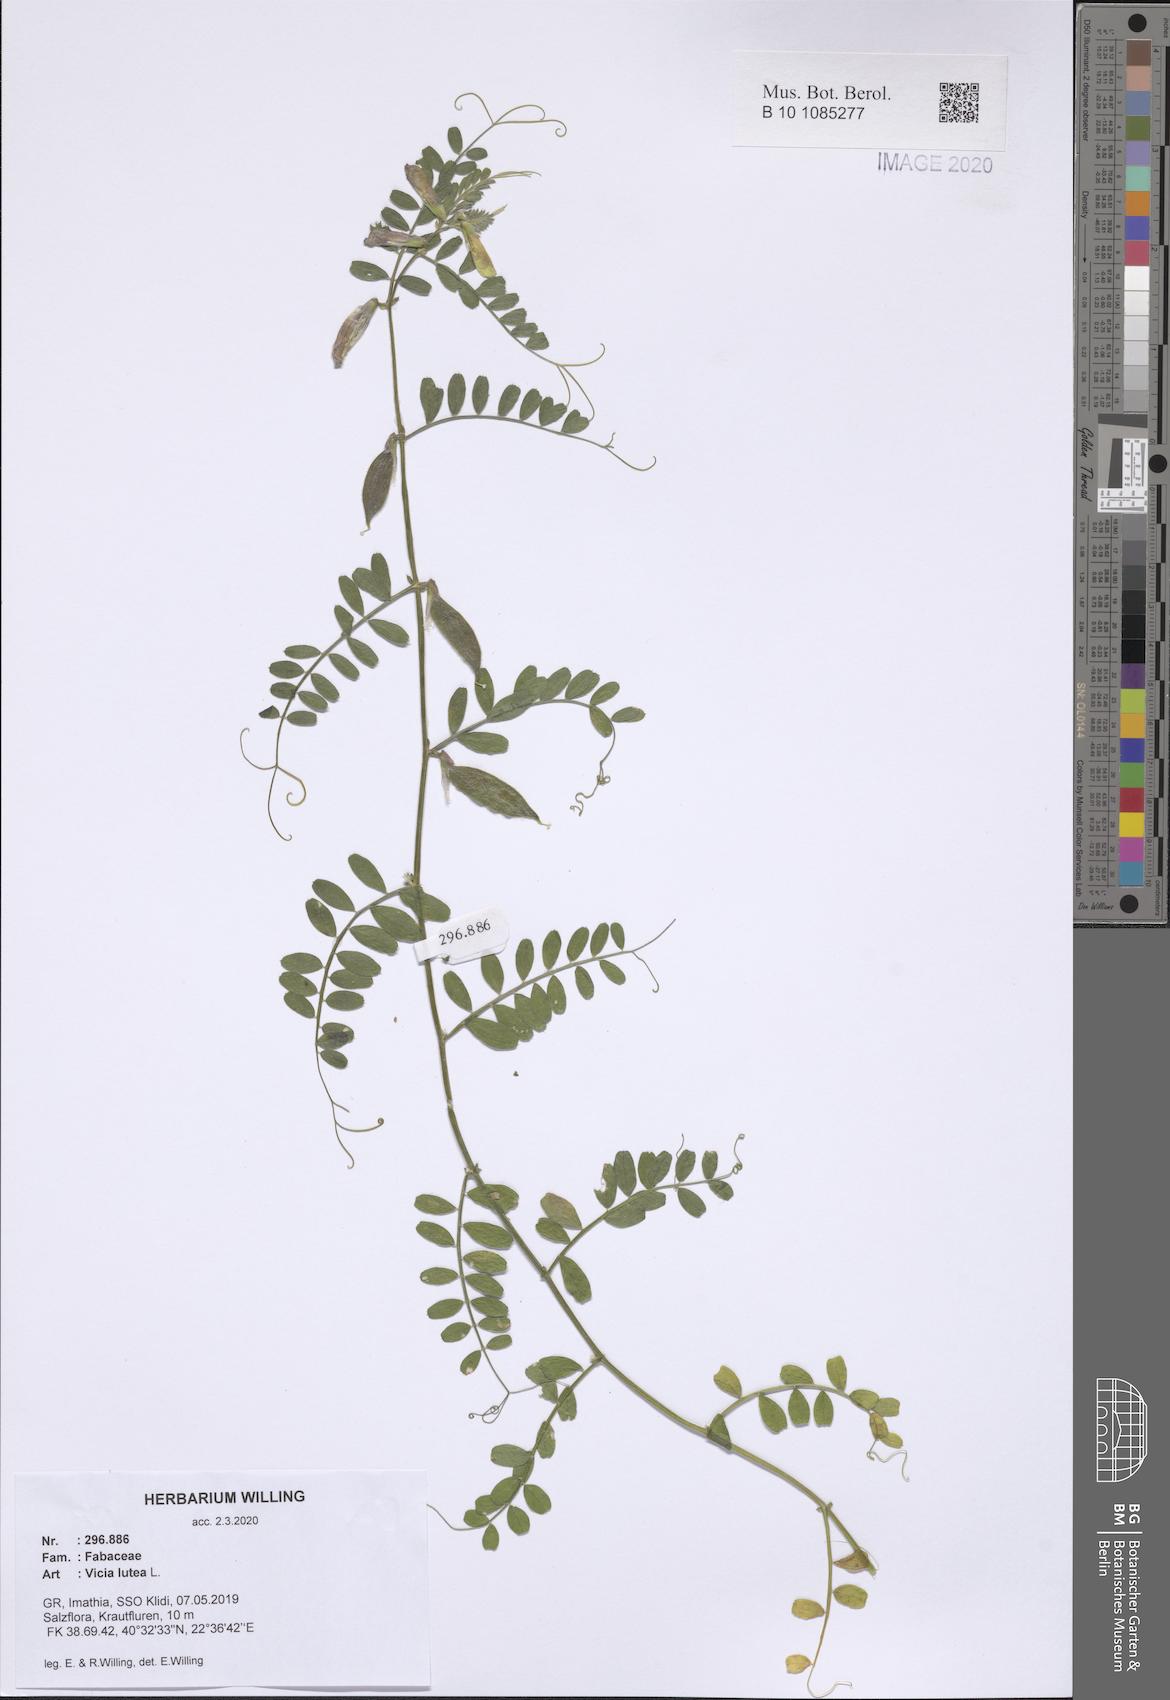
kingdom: Plantae
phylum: Tracheophyta
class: Magnoliopsida
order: Fabales
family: Fabaceae
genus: Vicia
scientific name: Vicia lutea
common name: Smooth yellow vetch
